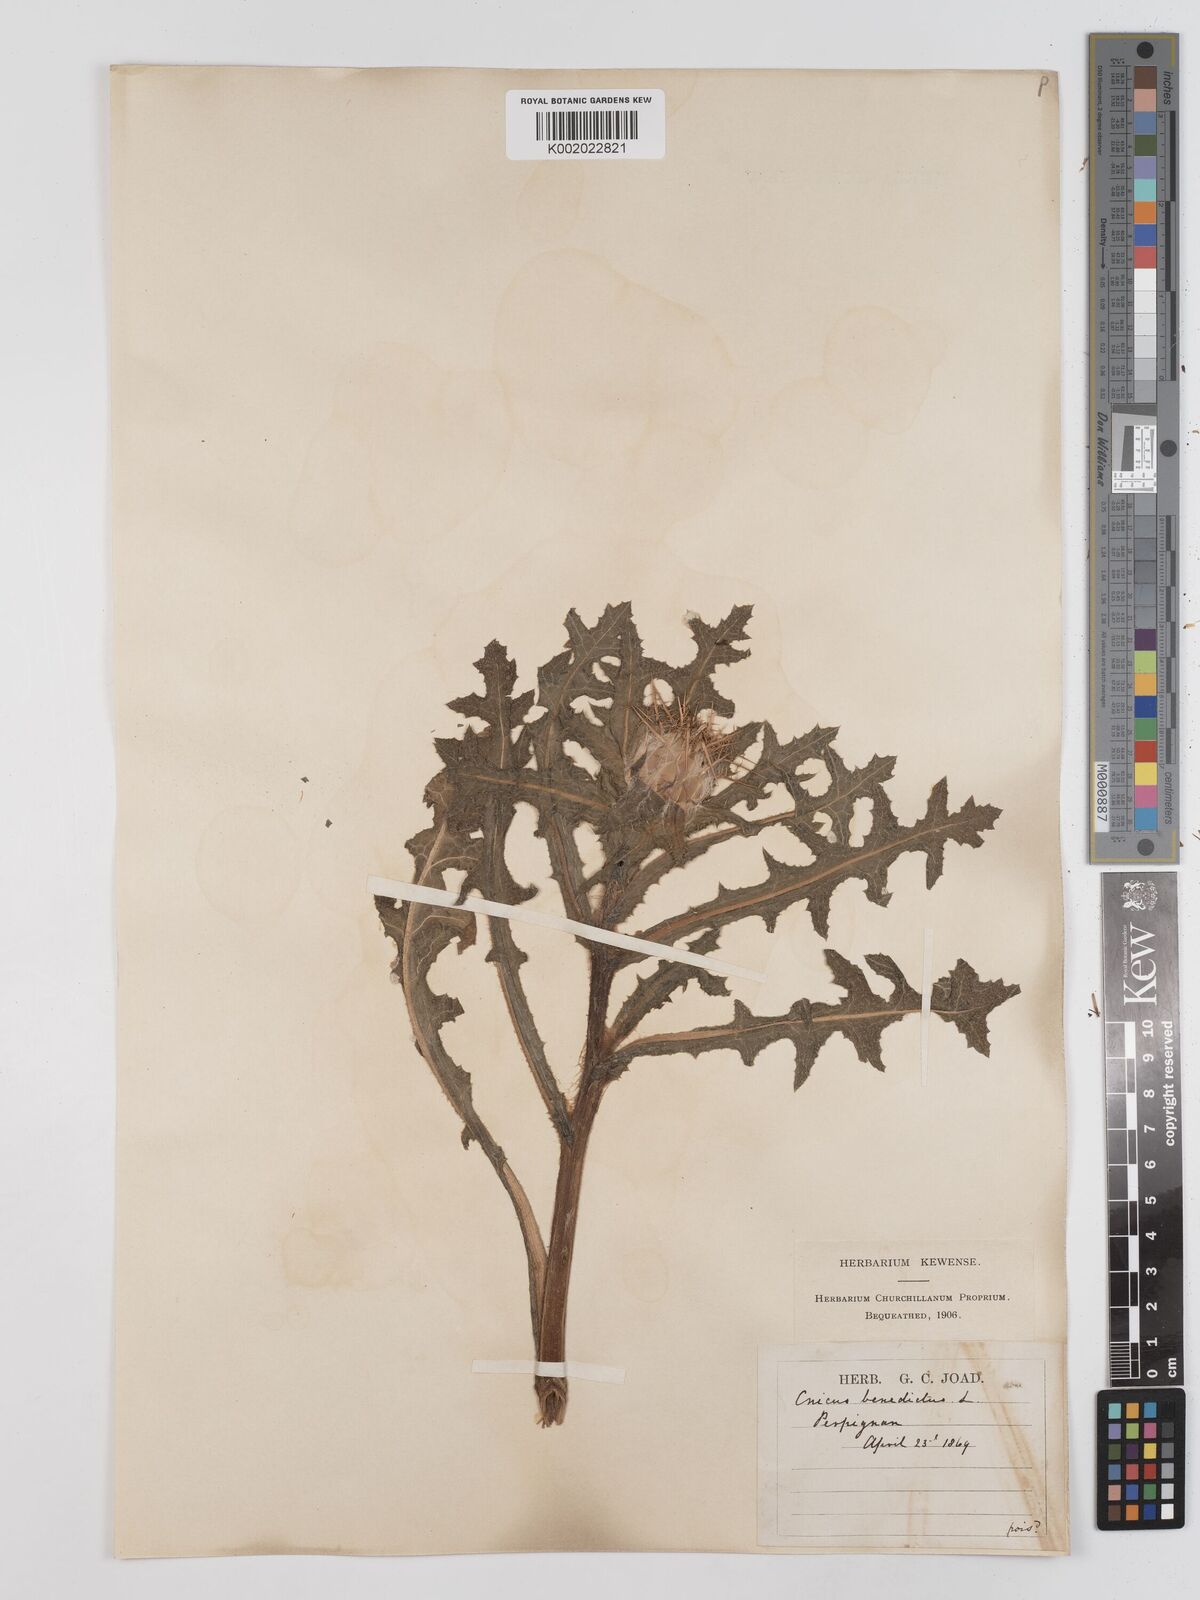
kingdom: Plantae
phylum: Tracheophyta
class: Magnoliopsida
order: Asterales
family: Asteraceae
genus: Centaurea
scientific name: Centaurea benedicta
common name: Blessed thistle
